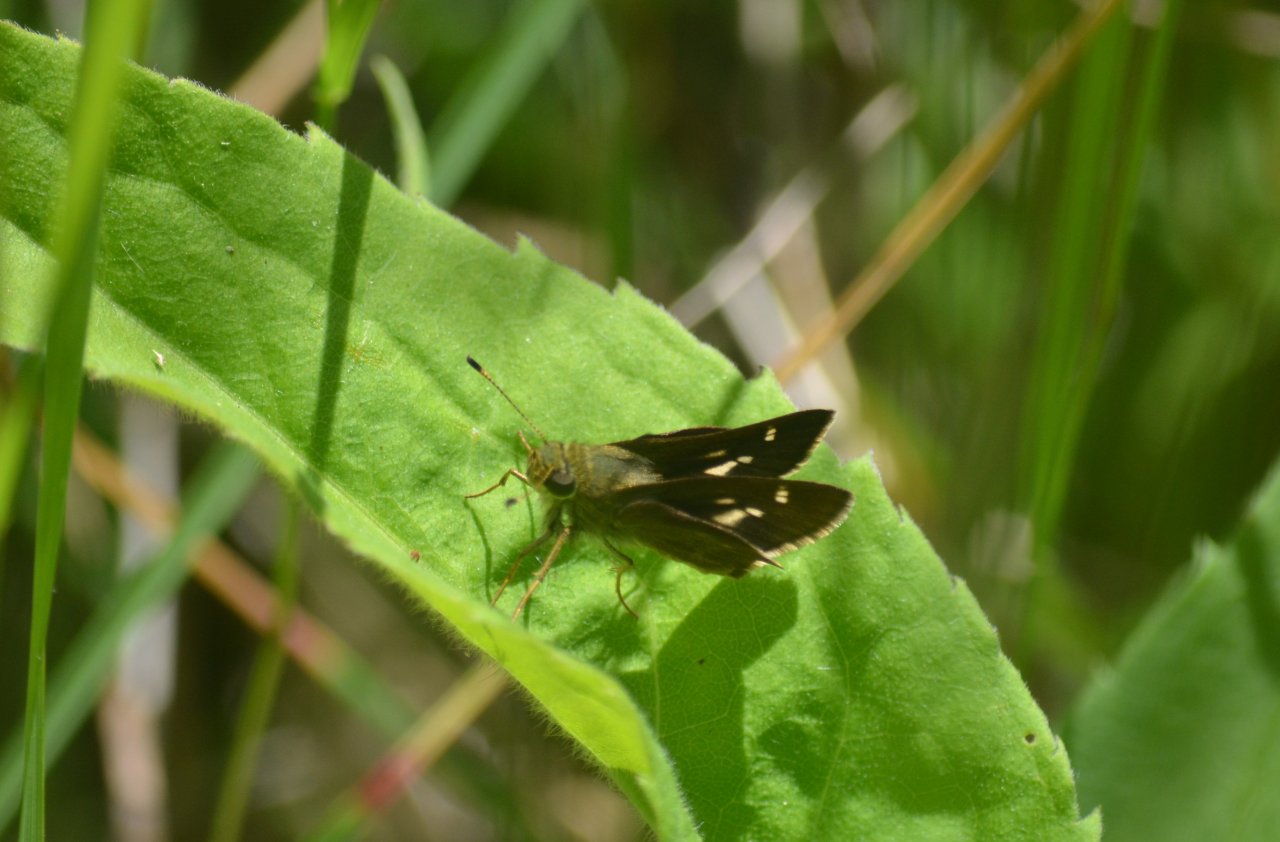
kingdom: Animalia
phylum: Arthropoda
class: Insecta
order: Lepidoptera
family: Hesperiidae
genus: Vernia
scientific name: Vernia verna
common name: Little Glassywing
